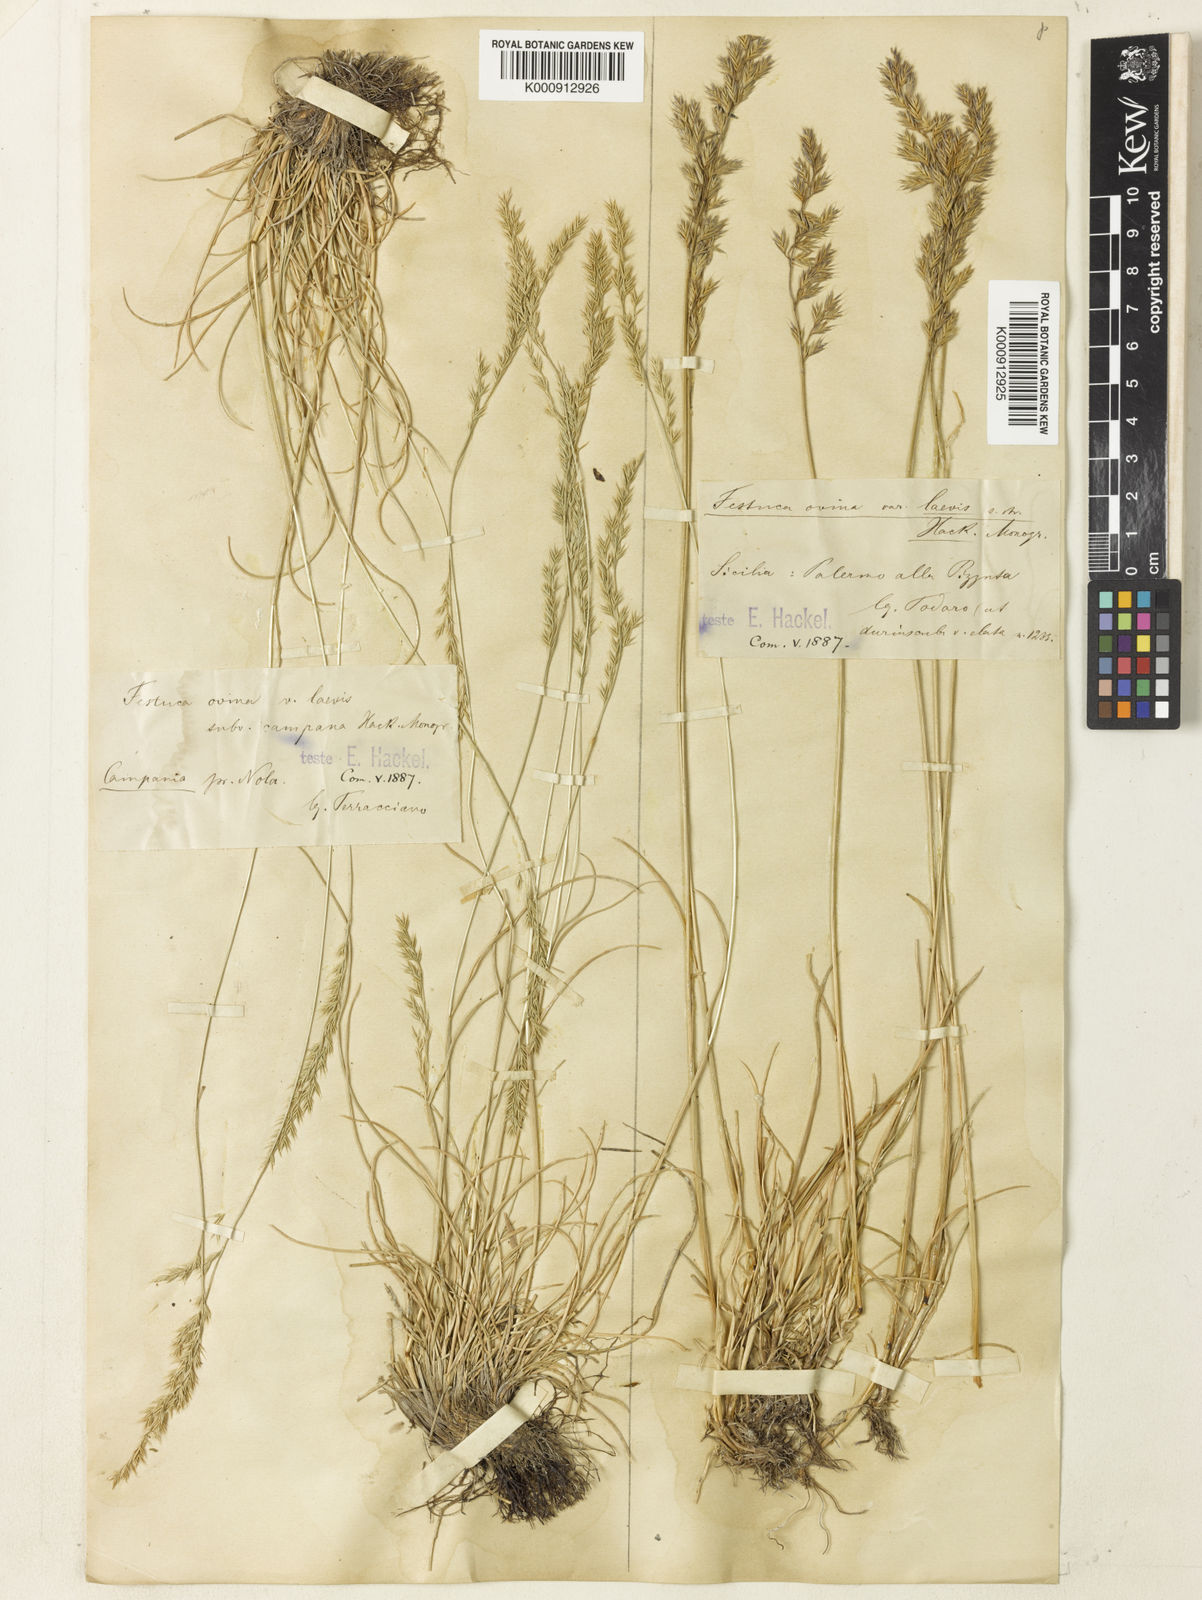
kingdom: Plantae
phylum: Tracheophyta
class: Liliopsida
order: Poales
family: Poaceae
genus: Festuca
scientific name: Festuca jeanpertii
